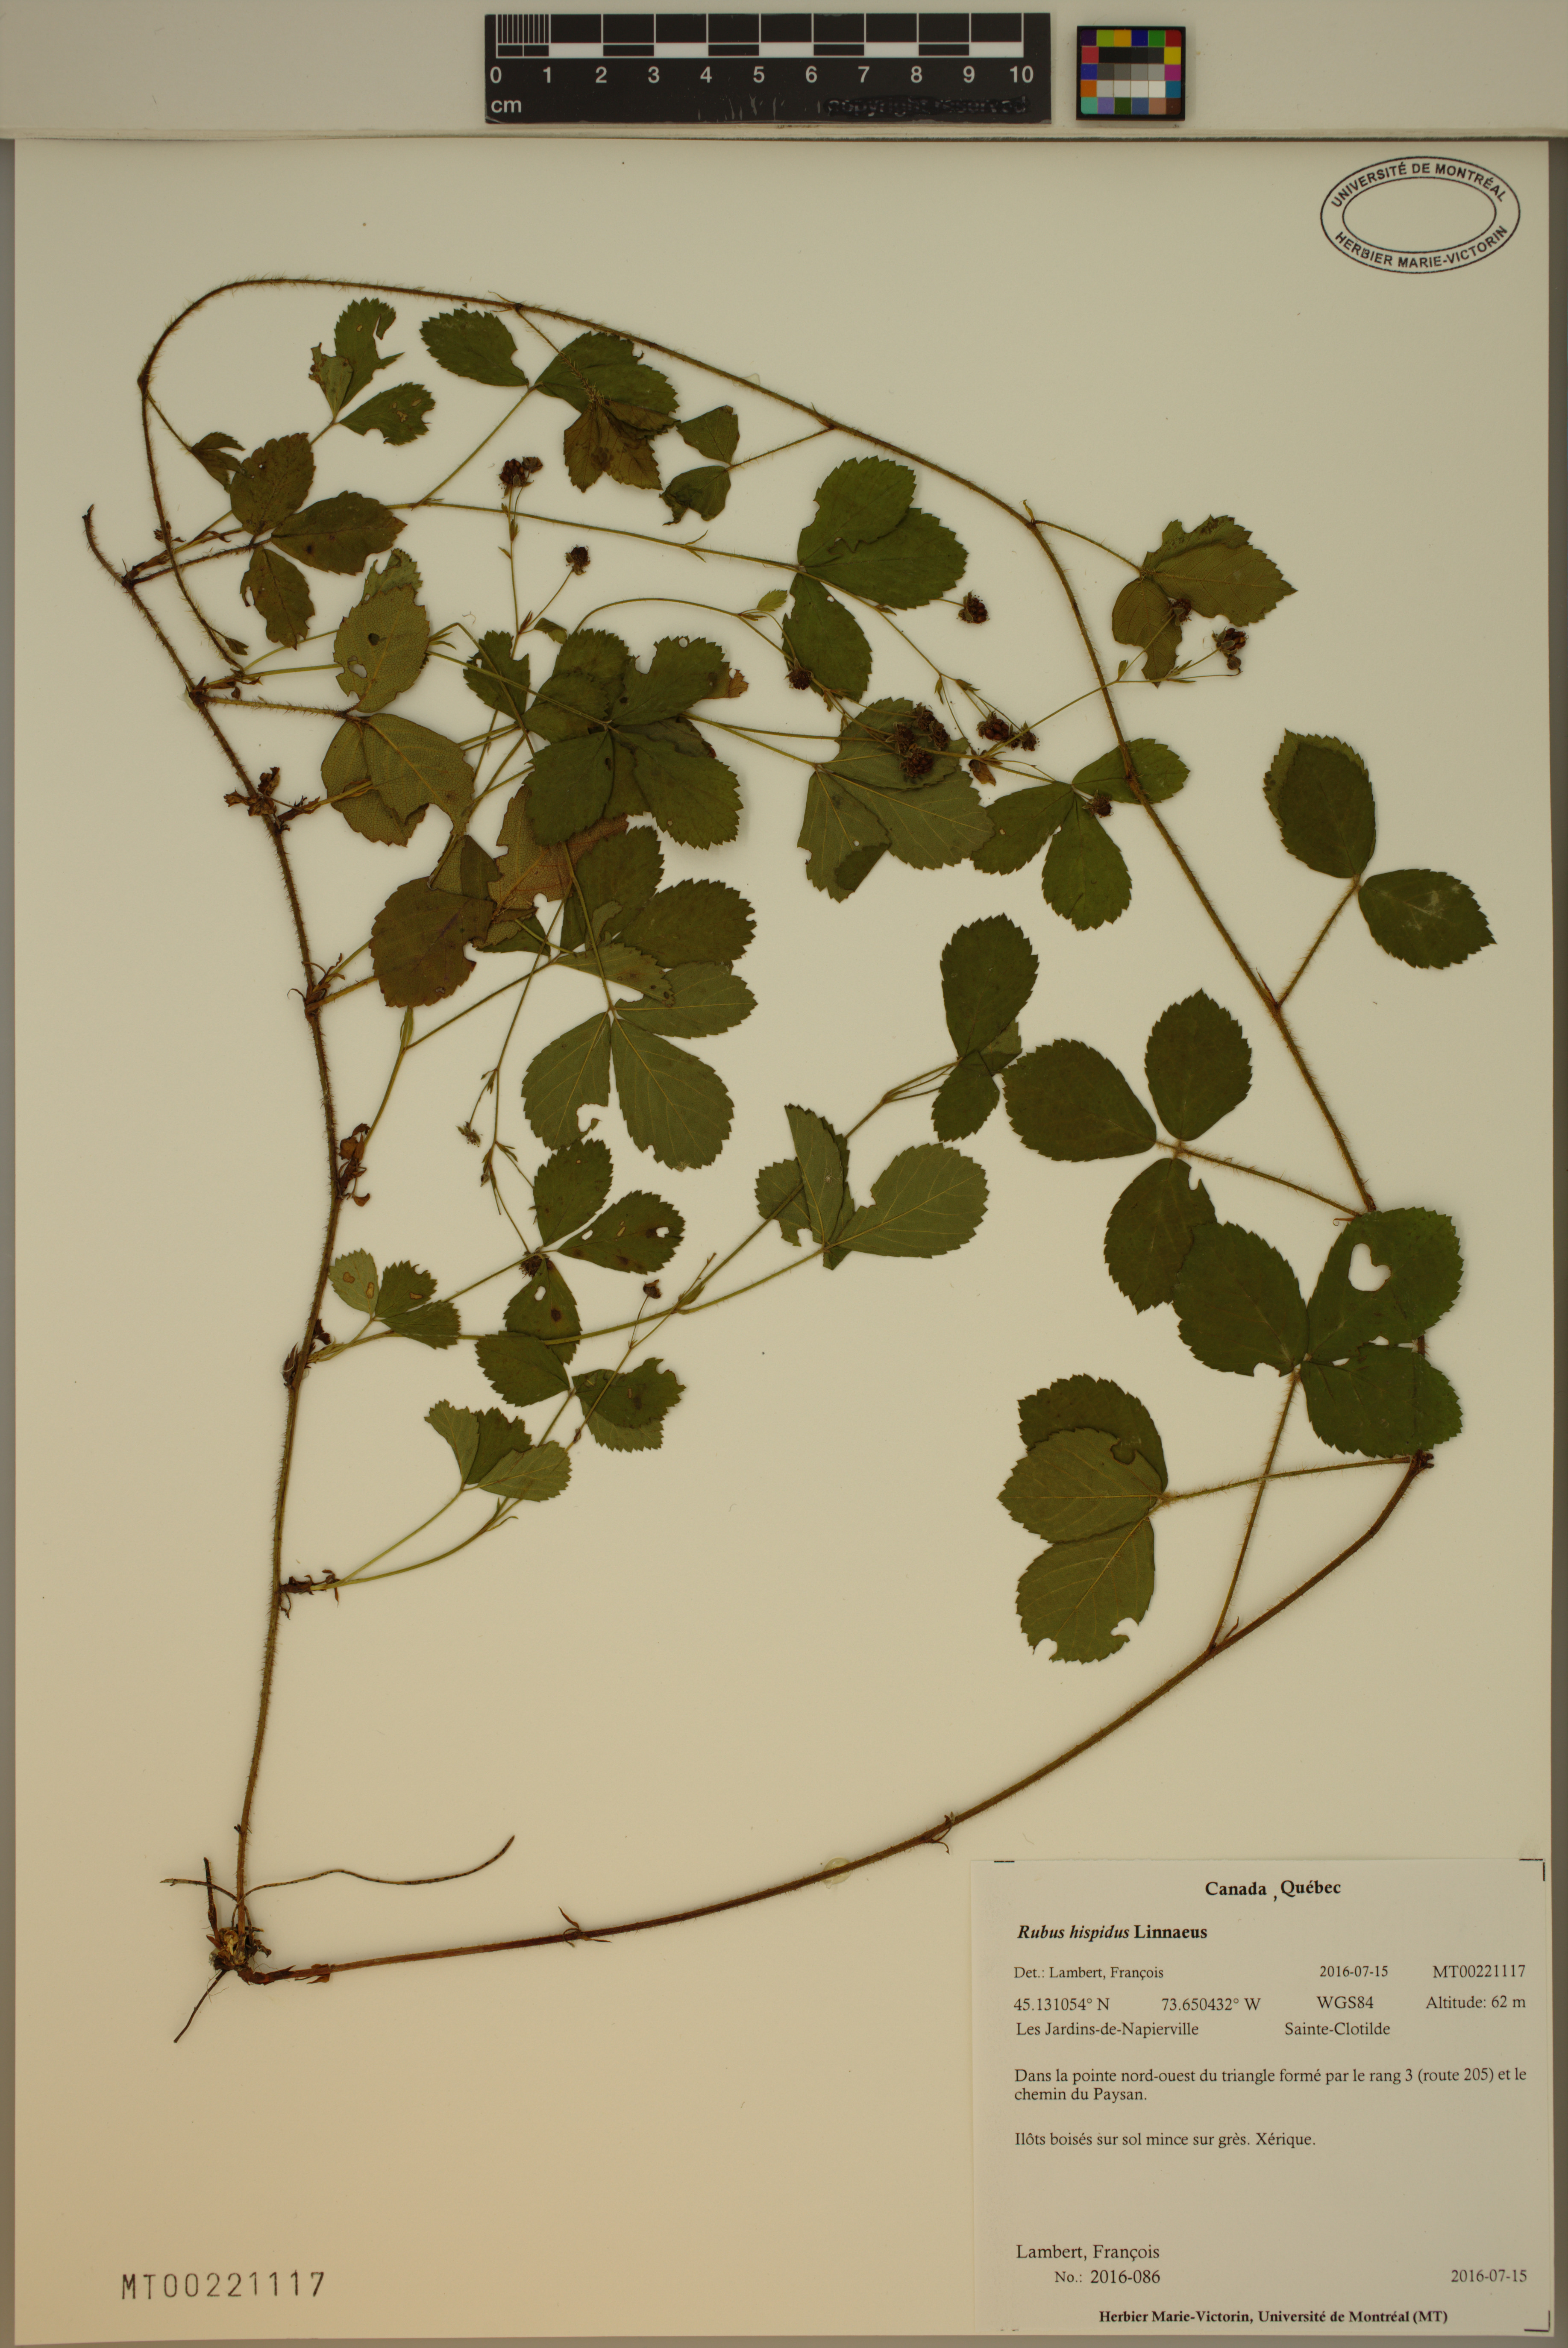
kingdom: Plantae
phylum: Tracheophyta
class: Magnoliopsida
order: Rosales
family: Rosaceae
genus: Rubus
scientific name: Rubus hispidus
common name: Running blackberry
